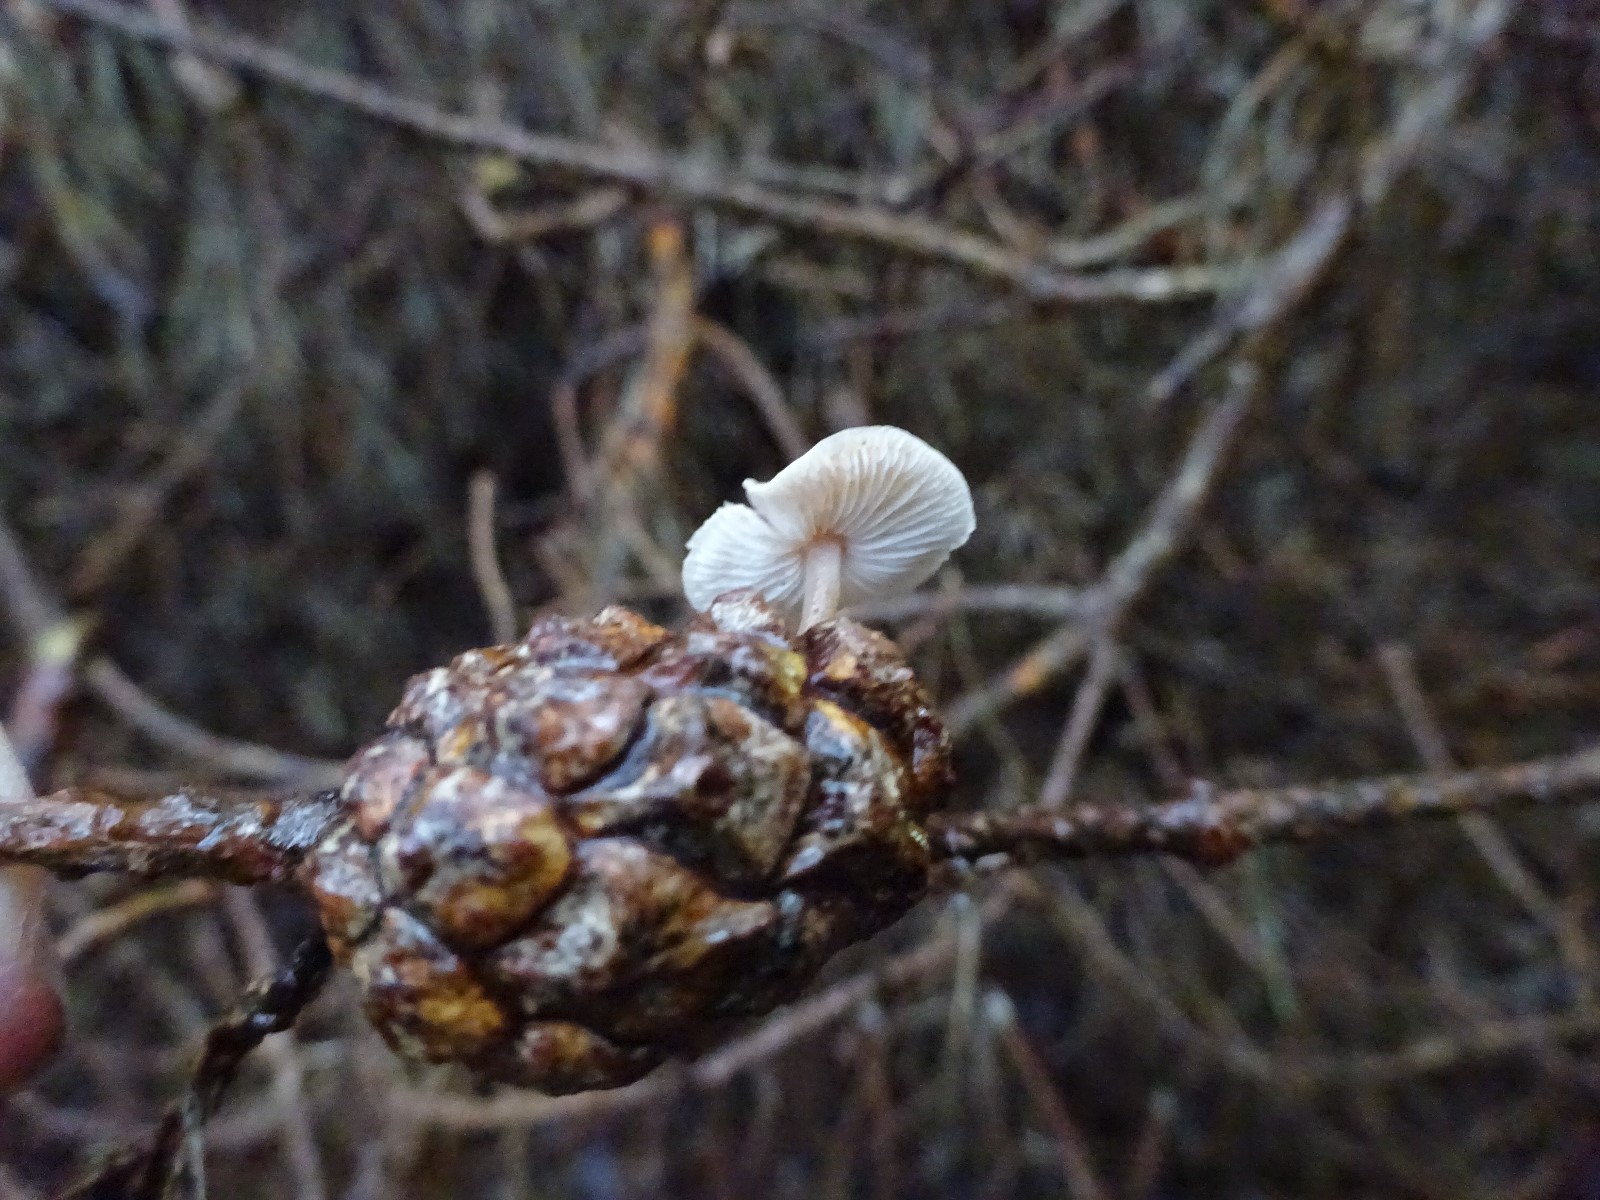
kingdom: Fungi
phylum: Basidiomycota
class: Agaricomycetes
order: Agaricales
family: Marasmiaceae
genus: Baeospora
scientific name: Baeospora myosura
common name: koglebruskhat
